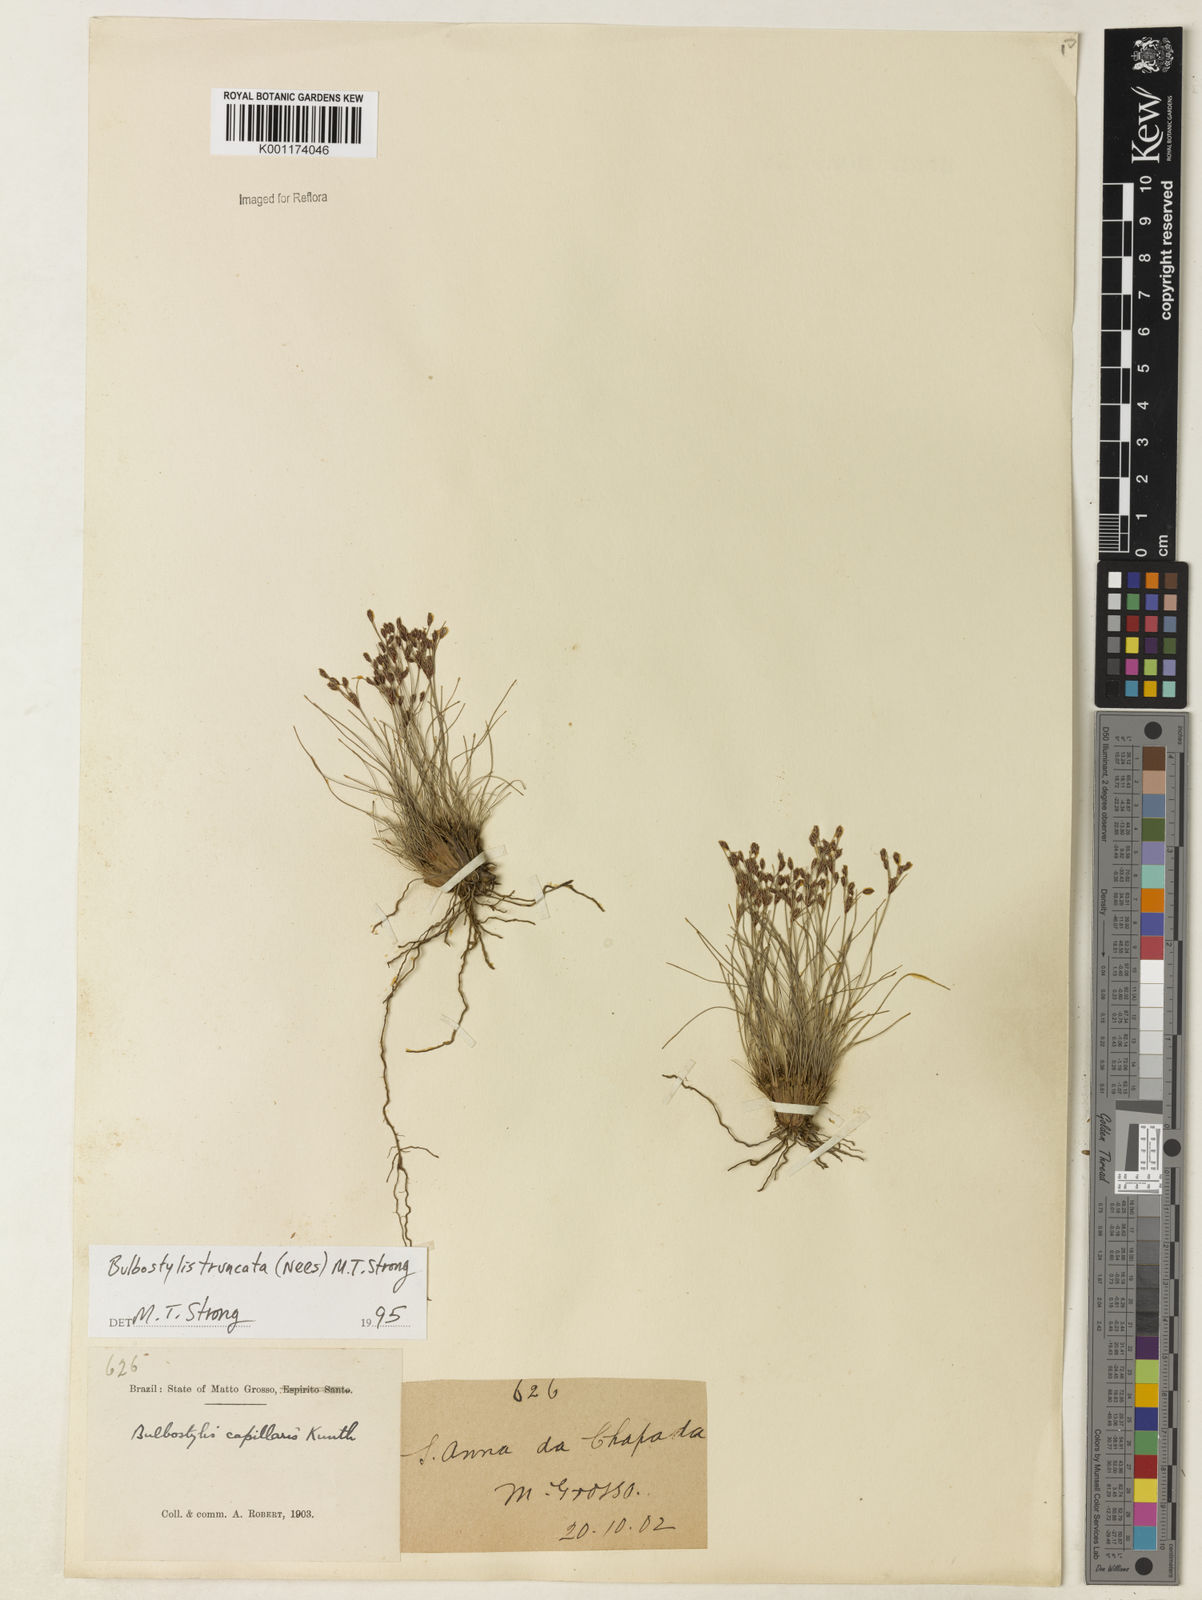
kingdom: Plantae
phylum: Tracheophyta
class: Liliopsida
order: Poales
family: Cyperaceae
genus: Bulbostylis
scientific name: Bulbostylis truncata
